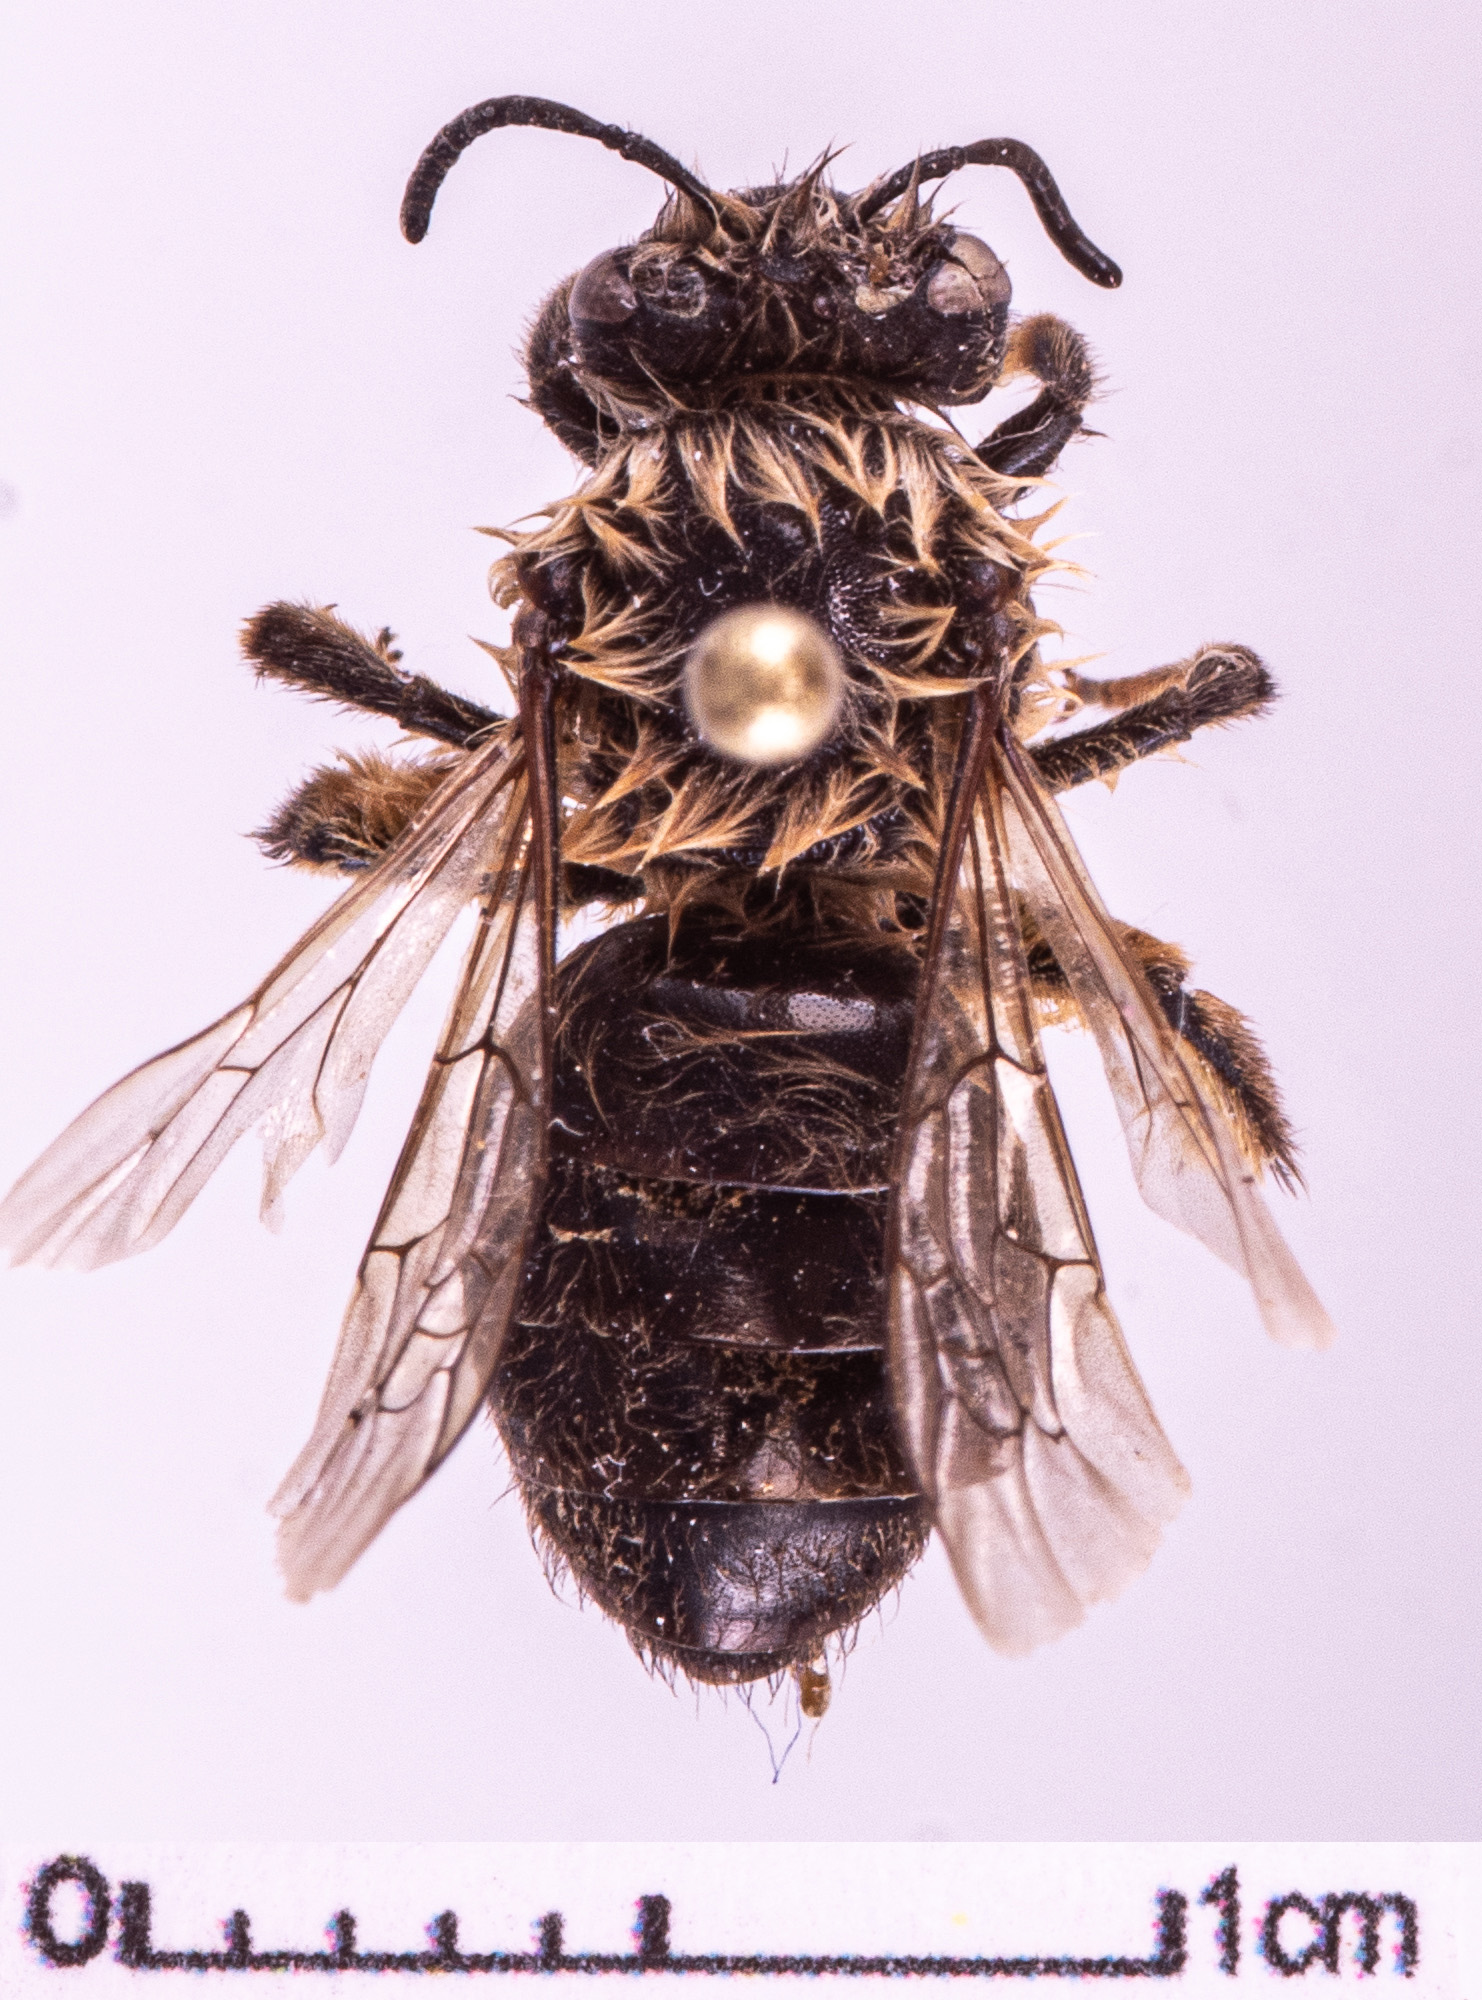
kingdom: Animalia
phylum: Arthropoda
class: Insecta
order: Hymenoptera
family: Colletidae
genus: Colletes
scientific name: Colletes cunicularius
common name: Early colletes
